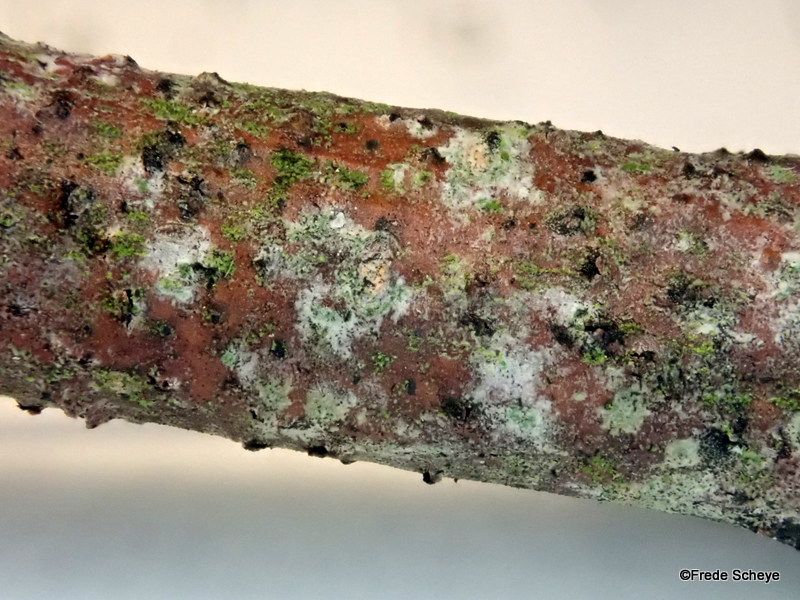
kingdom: Fungi
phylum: Ascomycota
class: Dothideomycetes
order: Pleosporales
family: Pleomassariaceae
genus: Splanchnonema
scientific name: Splanchnonema foedans
